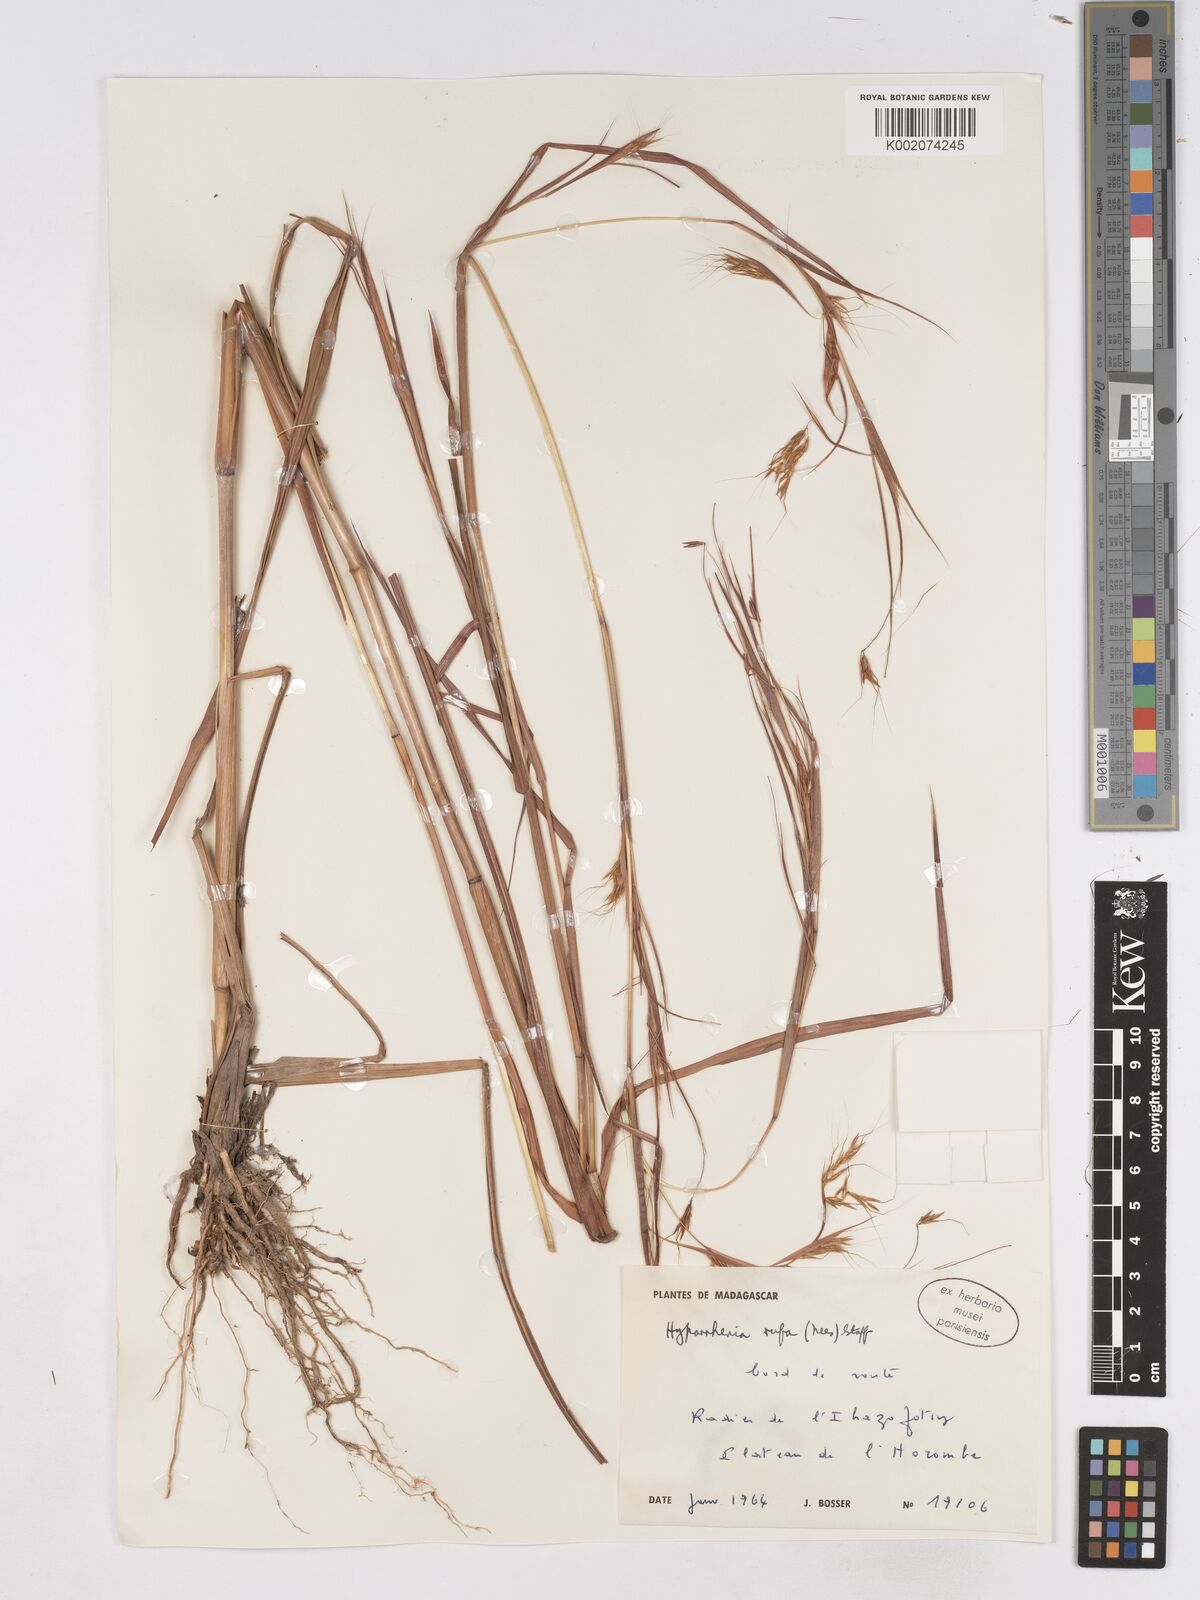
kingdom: Plantae
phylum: Tracheophyta
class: Liliopsida
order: Poales
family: Poaceae
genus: Hyparrhenia
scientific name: Hyparrhenia rufa
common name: Jaraguagrass
